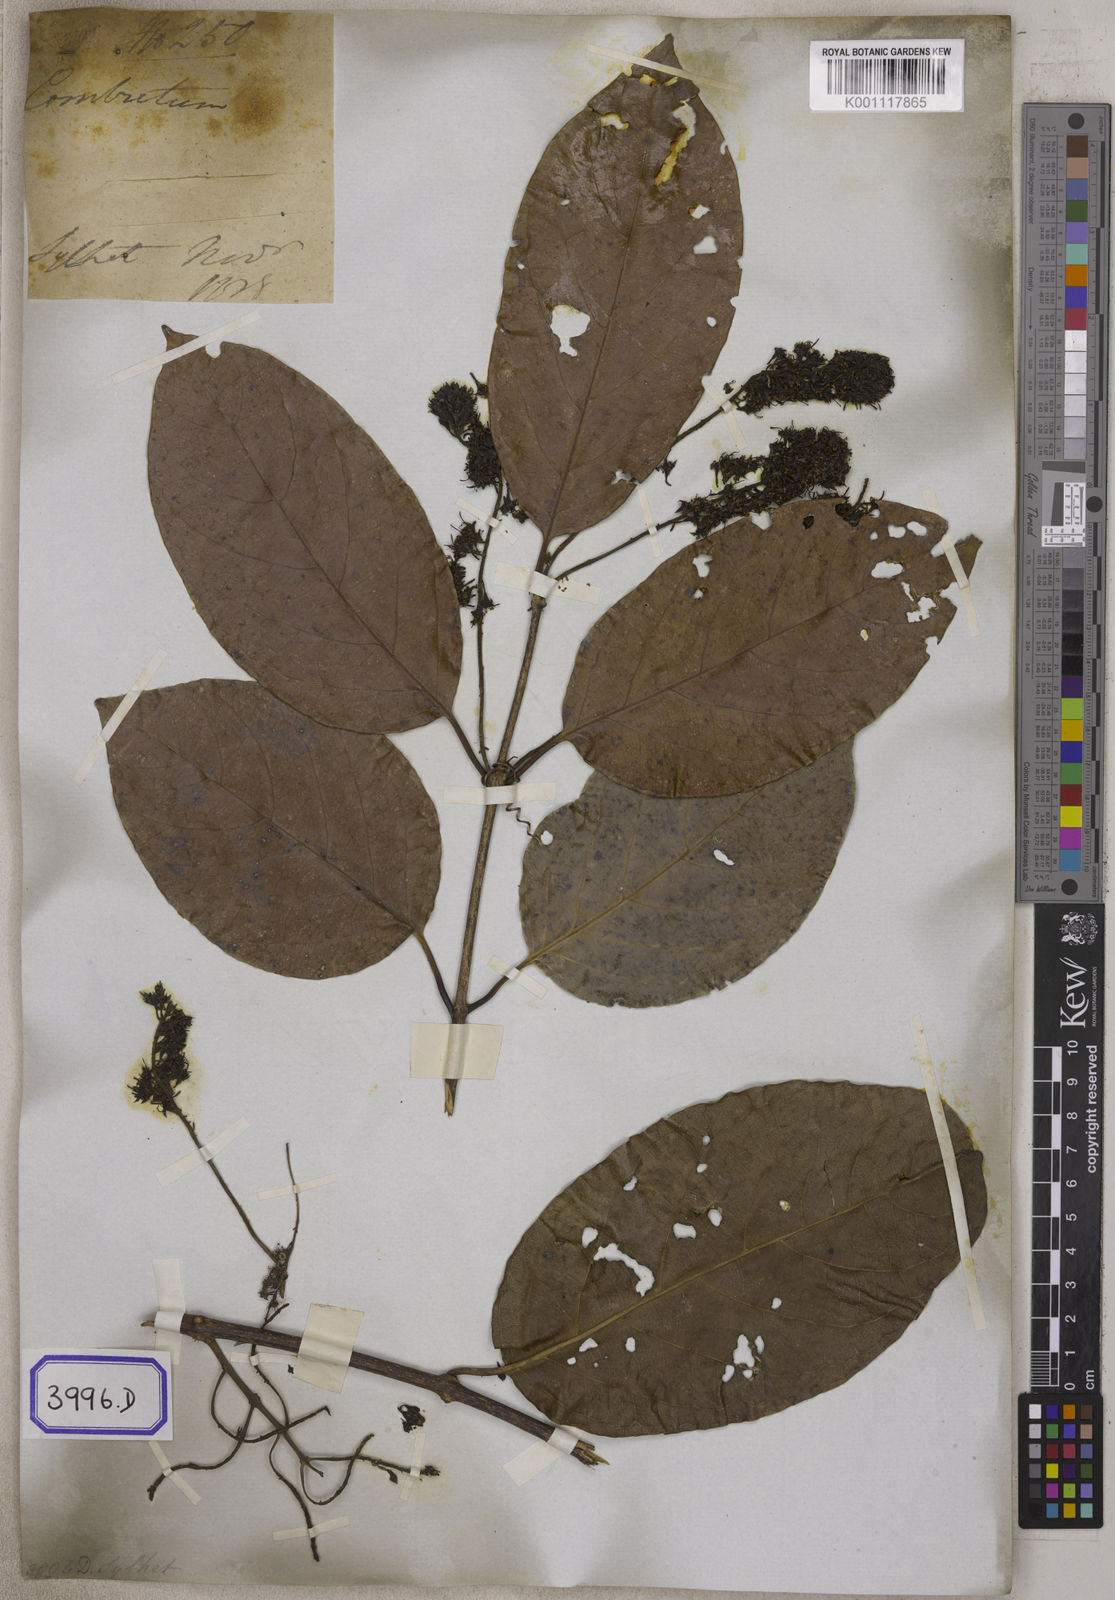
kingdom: Plantae
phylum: Tracheophyta
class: Magnoliopsida
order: Myrtales
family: Combretaceae
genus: Combretum
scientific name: Combretum
